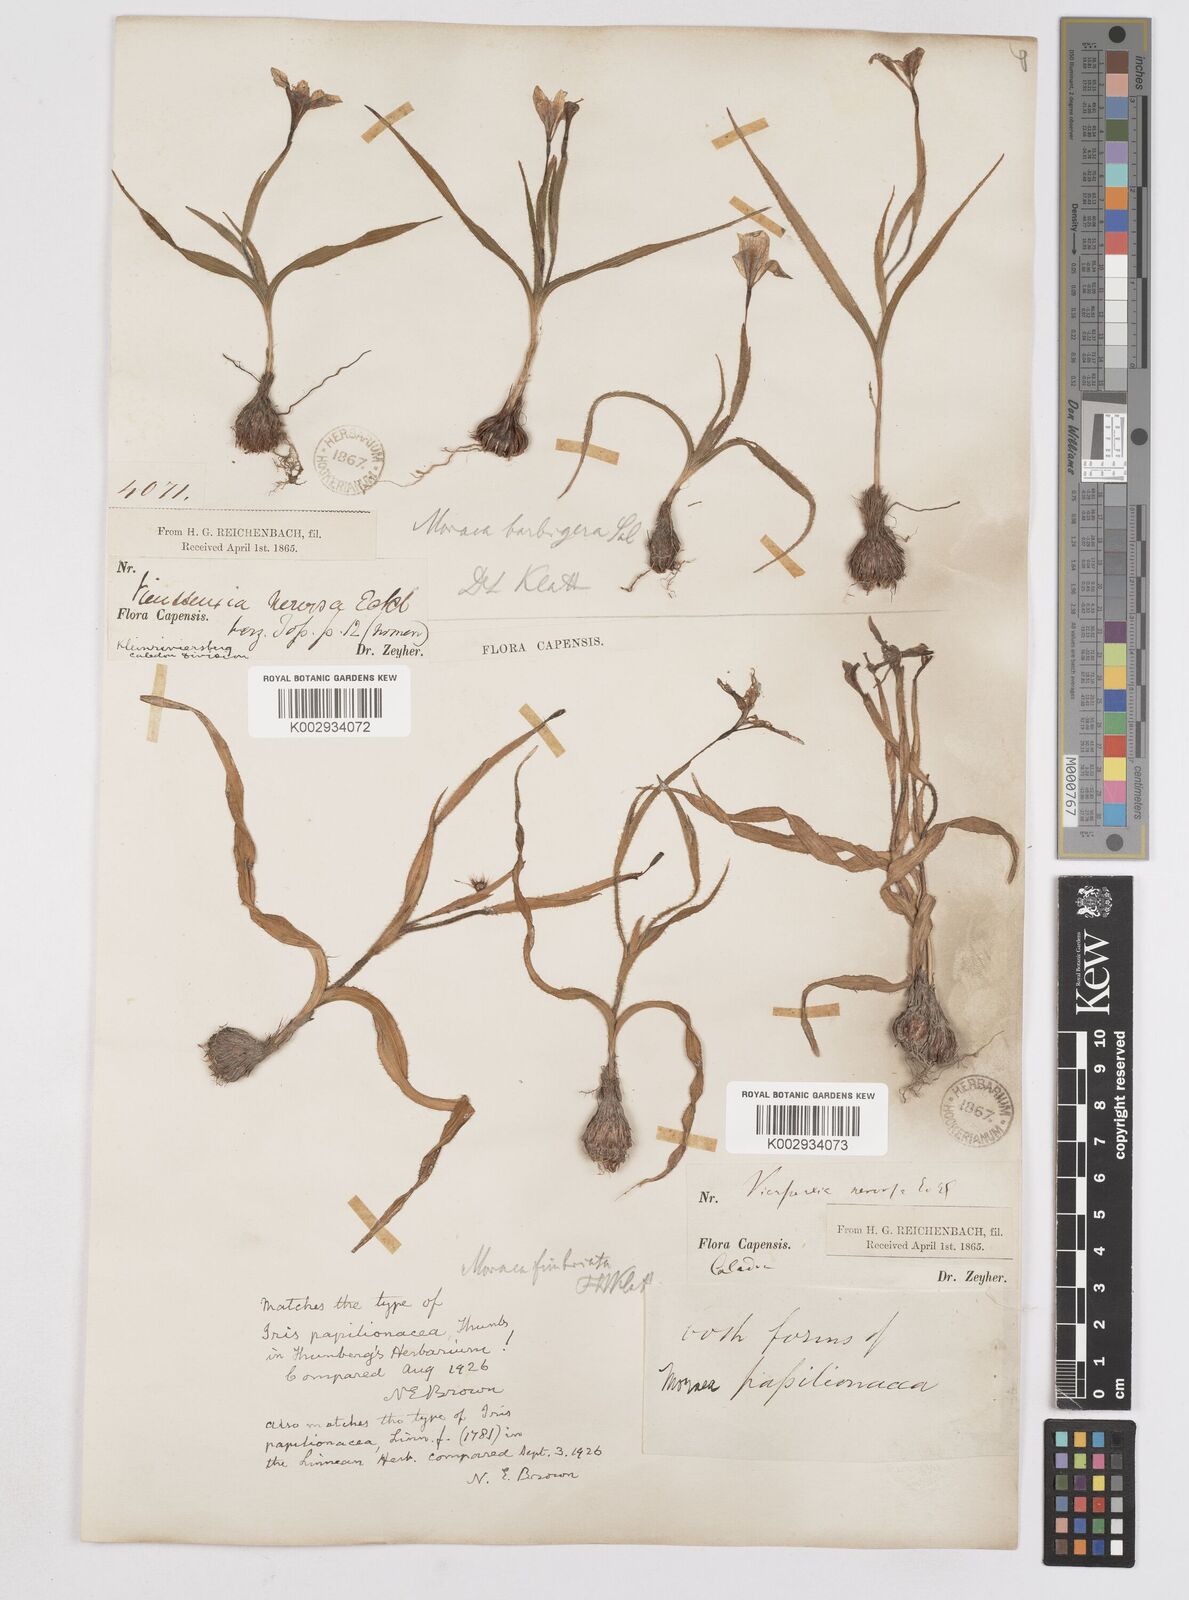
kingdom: Plantae
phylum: Tracheophyta
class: Liliopsida
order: Asparagales
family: Iridaceae
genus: Moraea
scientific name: Moraea papilionacea
